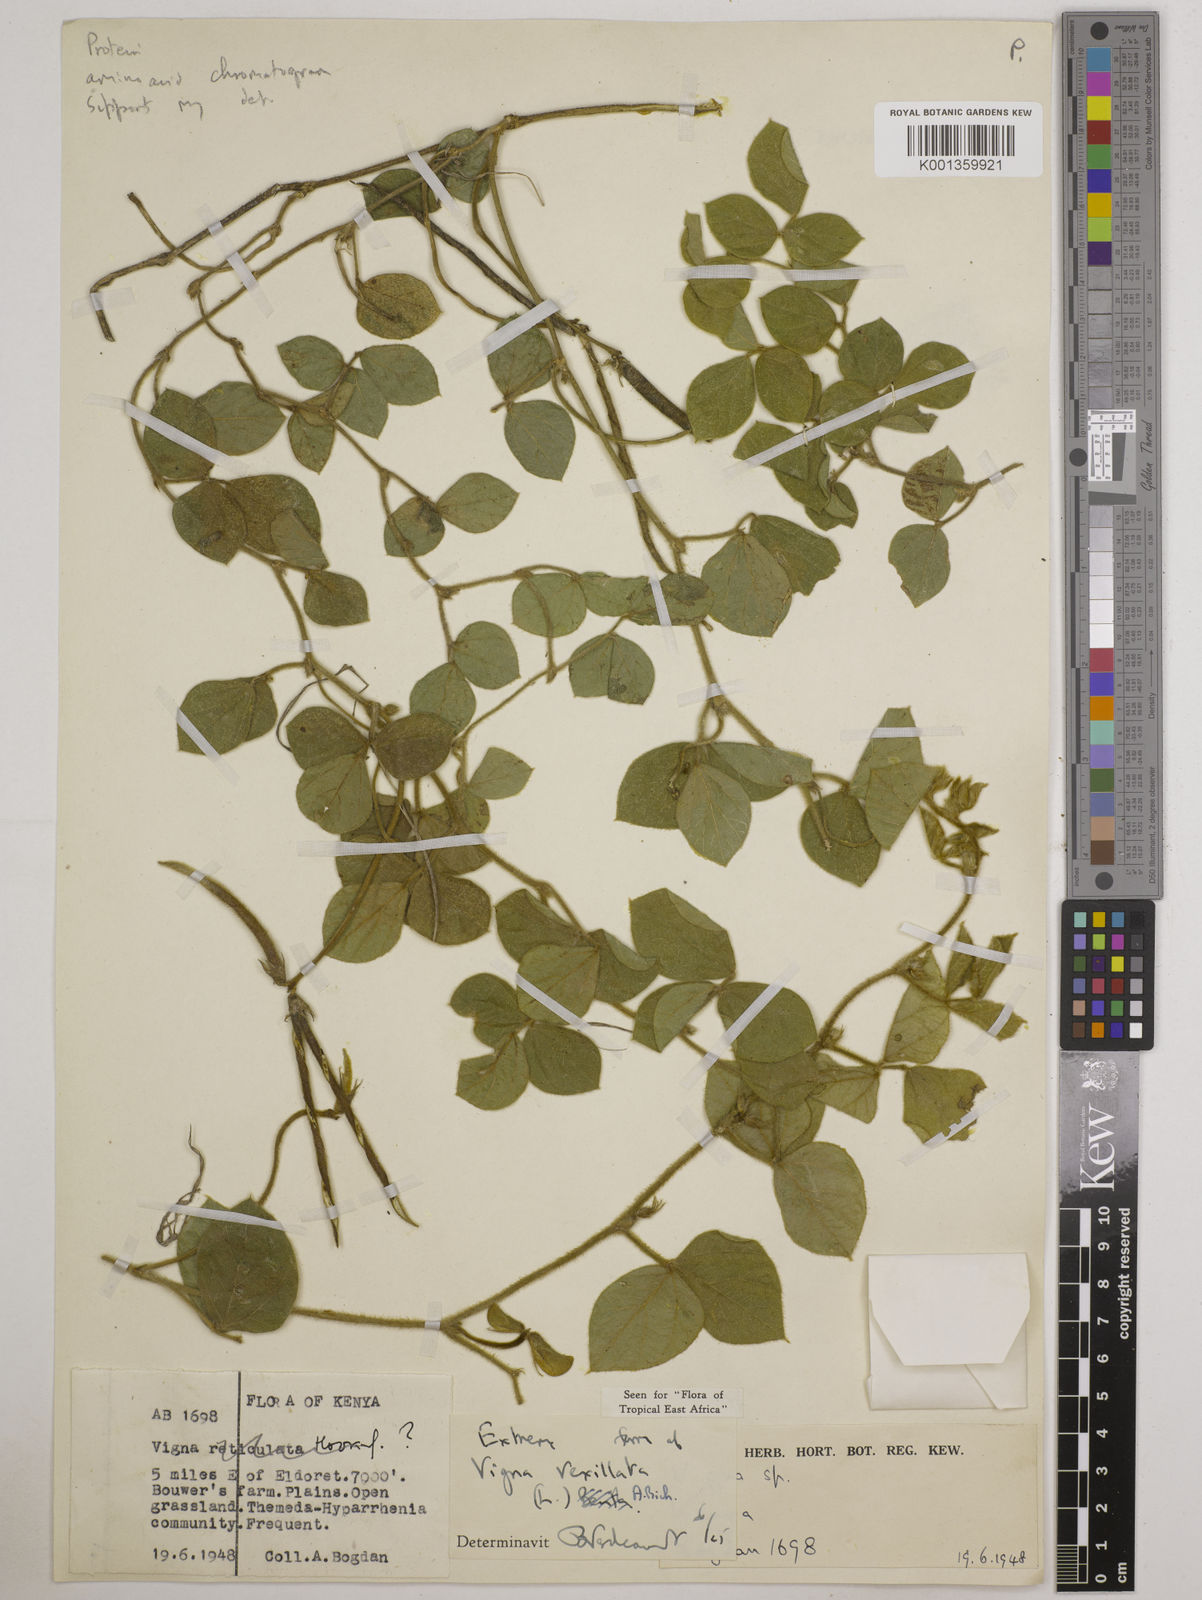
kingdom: Plantae
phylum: Tracheophyta
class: Magnoliopsida
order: Fabales
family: Fabaceae
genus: Vigna
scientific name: Vigna vexillata
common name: Zombi pea
